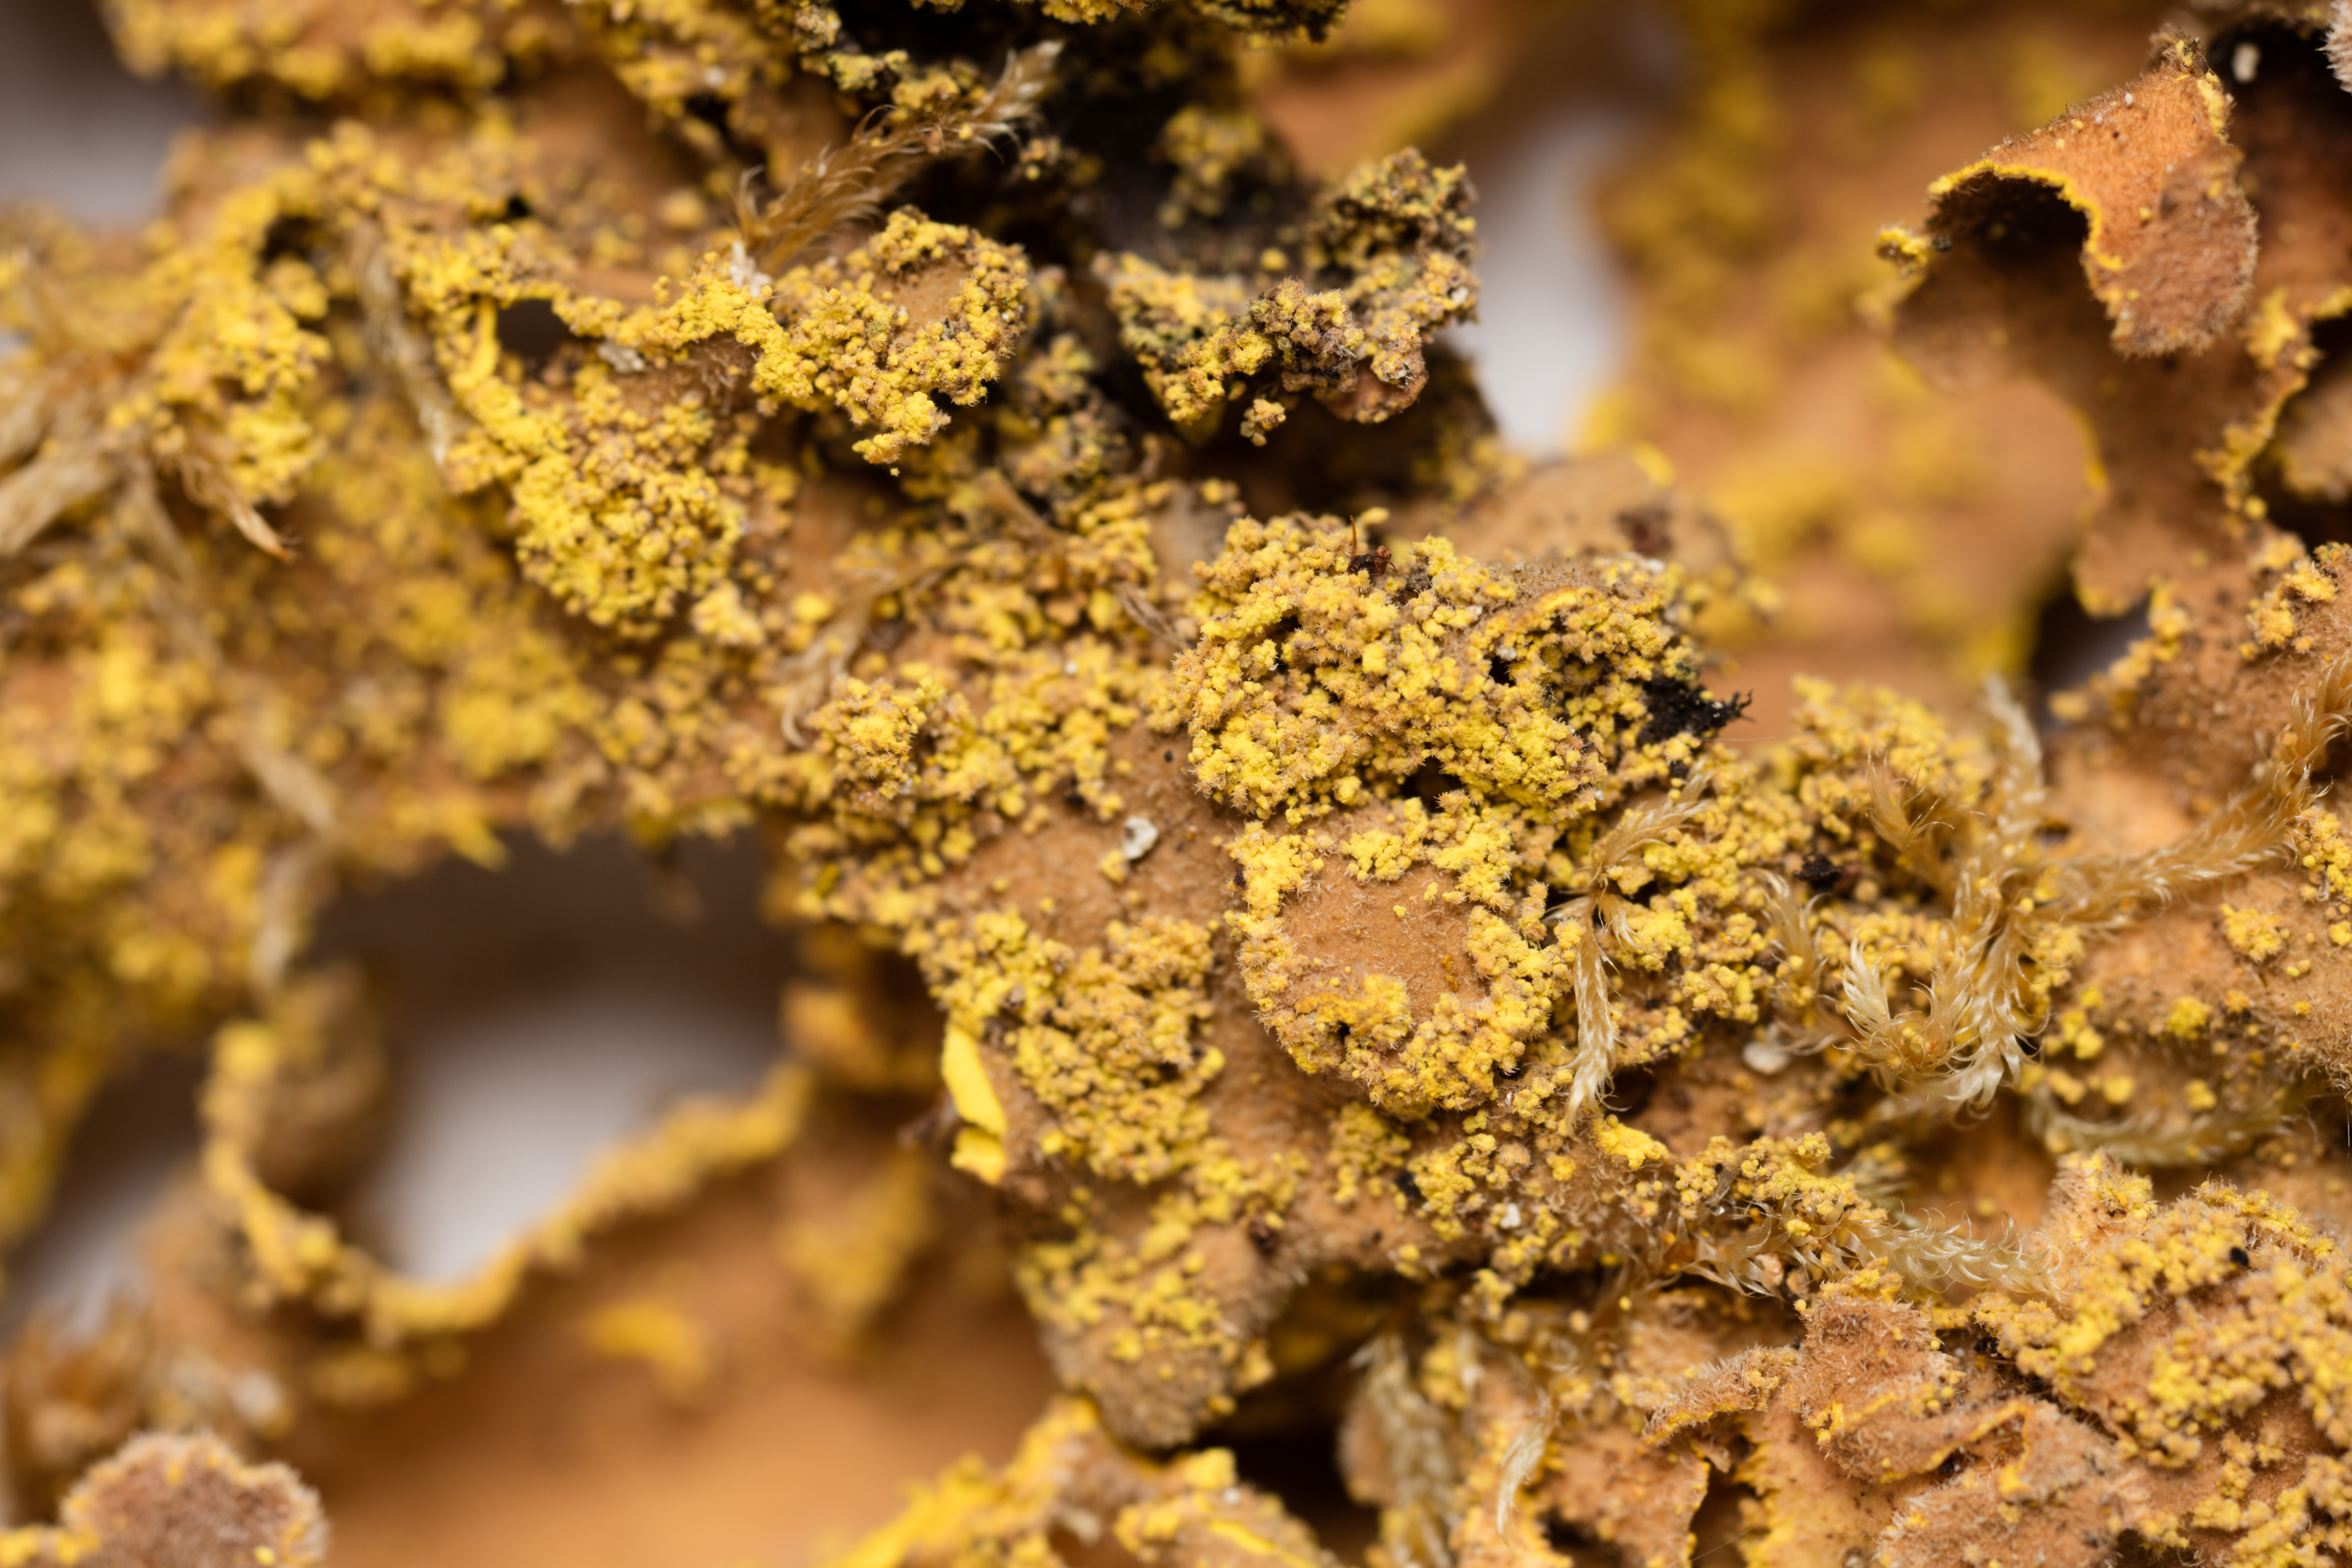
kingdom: Fungi
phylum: Ascomycota
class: Lecanoromycetes
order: Peltigerales
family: Lobariaceae
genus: Pseudocyphellaria
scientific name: Pseudocyphellaria rubella
